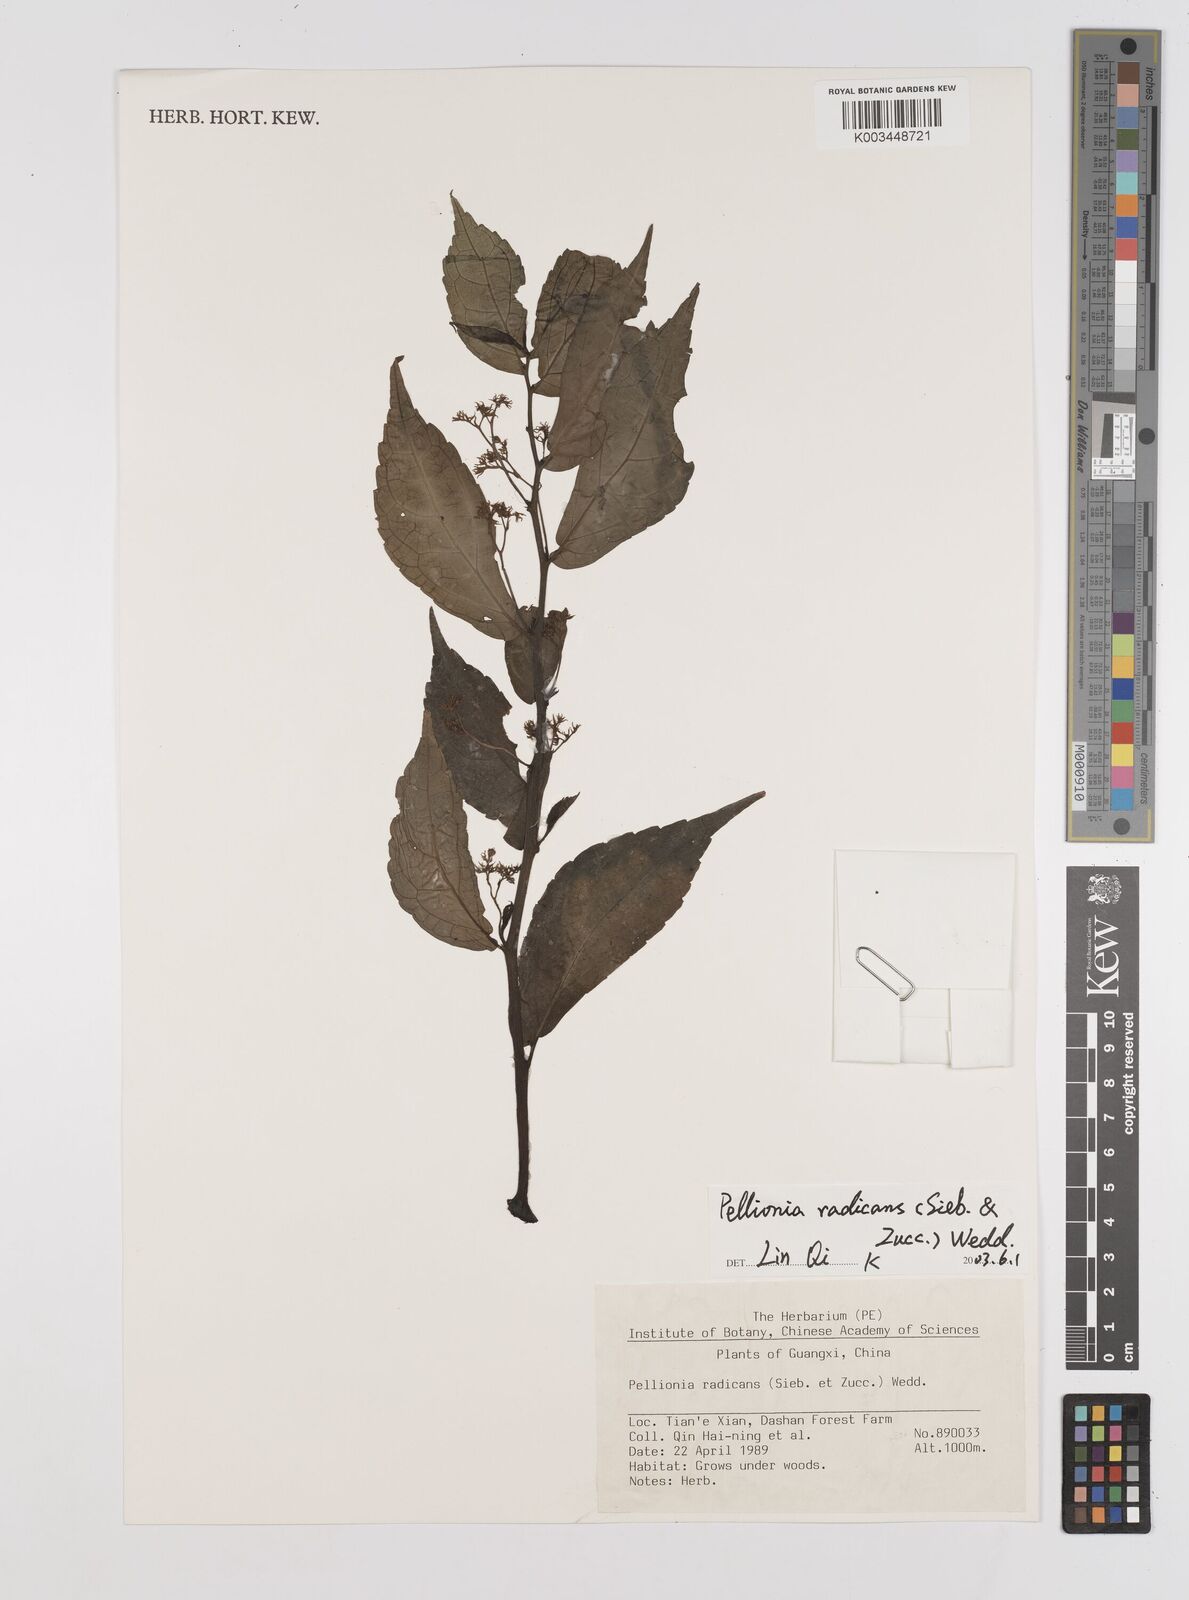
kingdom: Plantae
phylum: Tracheophyta
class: Magnoliopsida
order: Rosales
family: Urticaceae
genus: Elatostema
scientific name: Elatostema radicans
